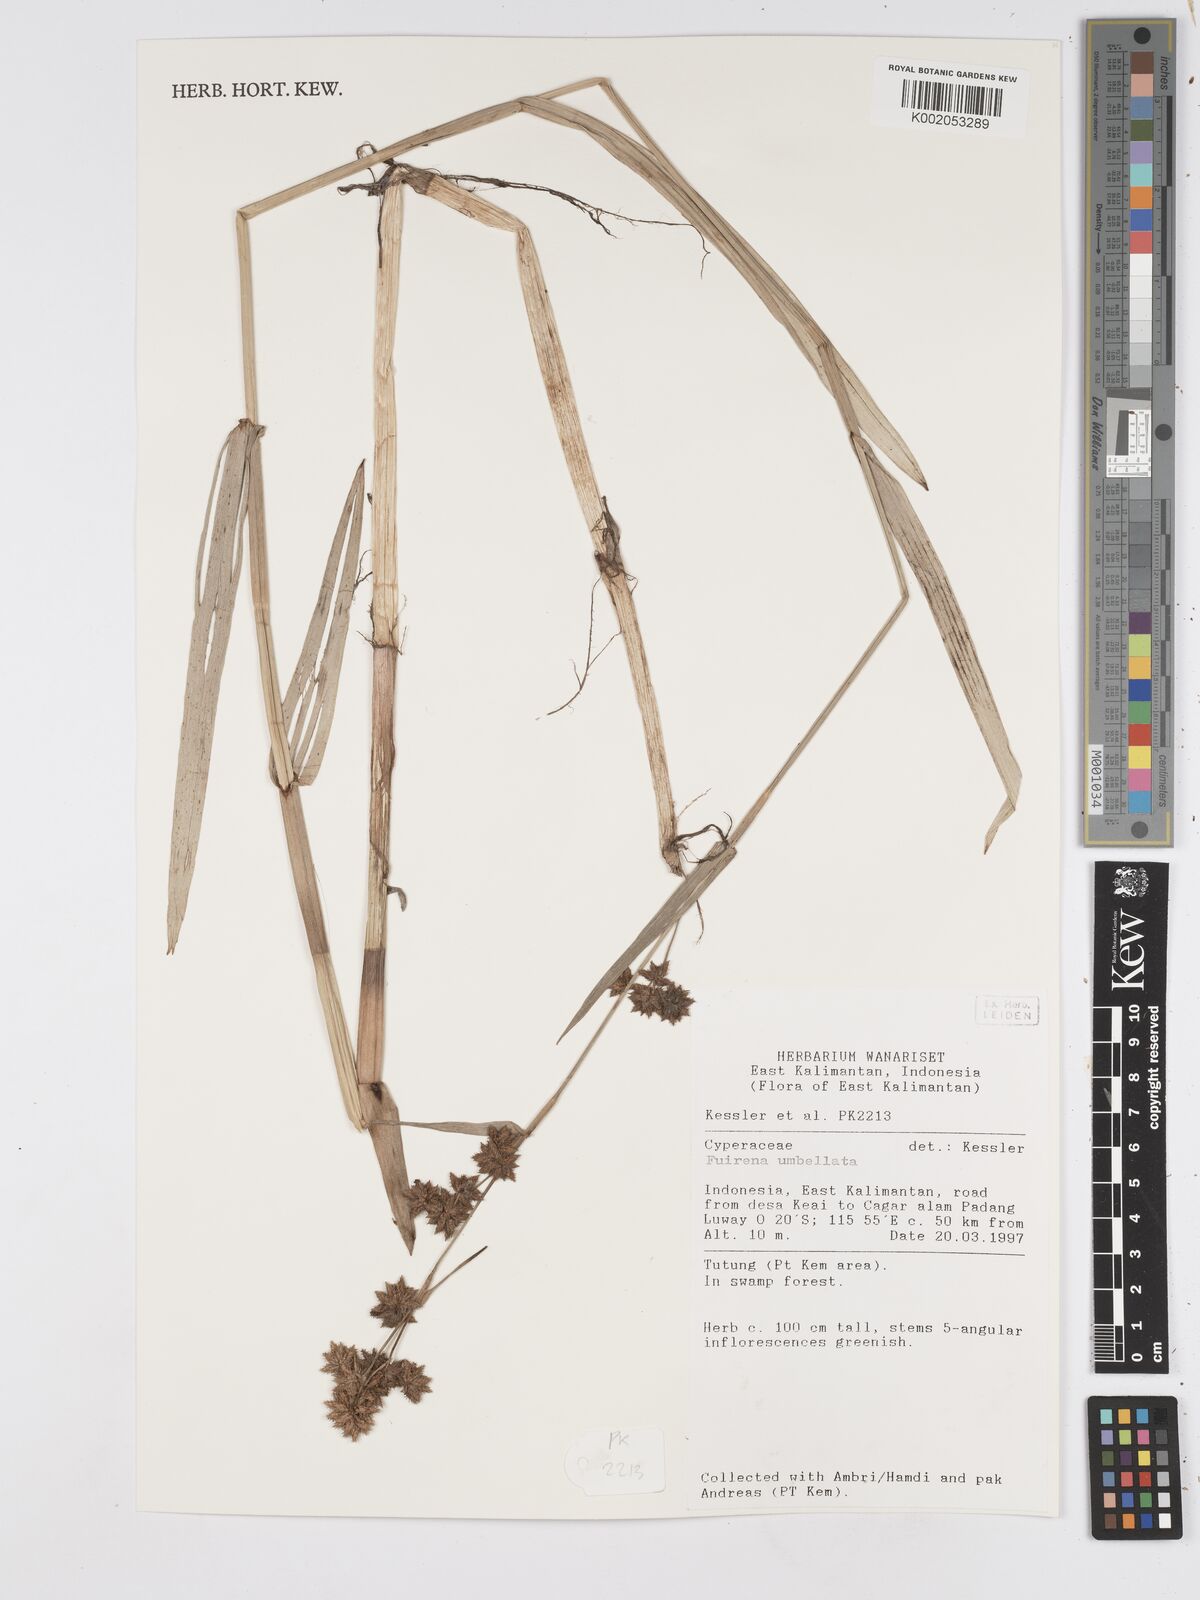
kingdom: Plantae
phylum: Tracheophyta
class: Liliopsida
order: Poales
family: Cyperaceae
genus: Fuirena
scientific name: Fuirena umbellata
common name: Yefen
